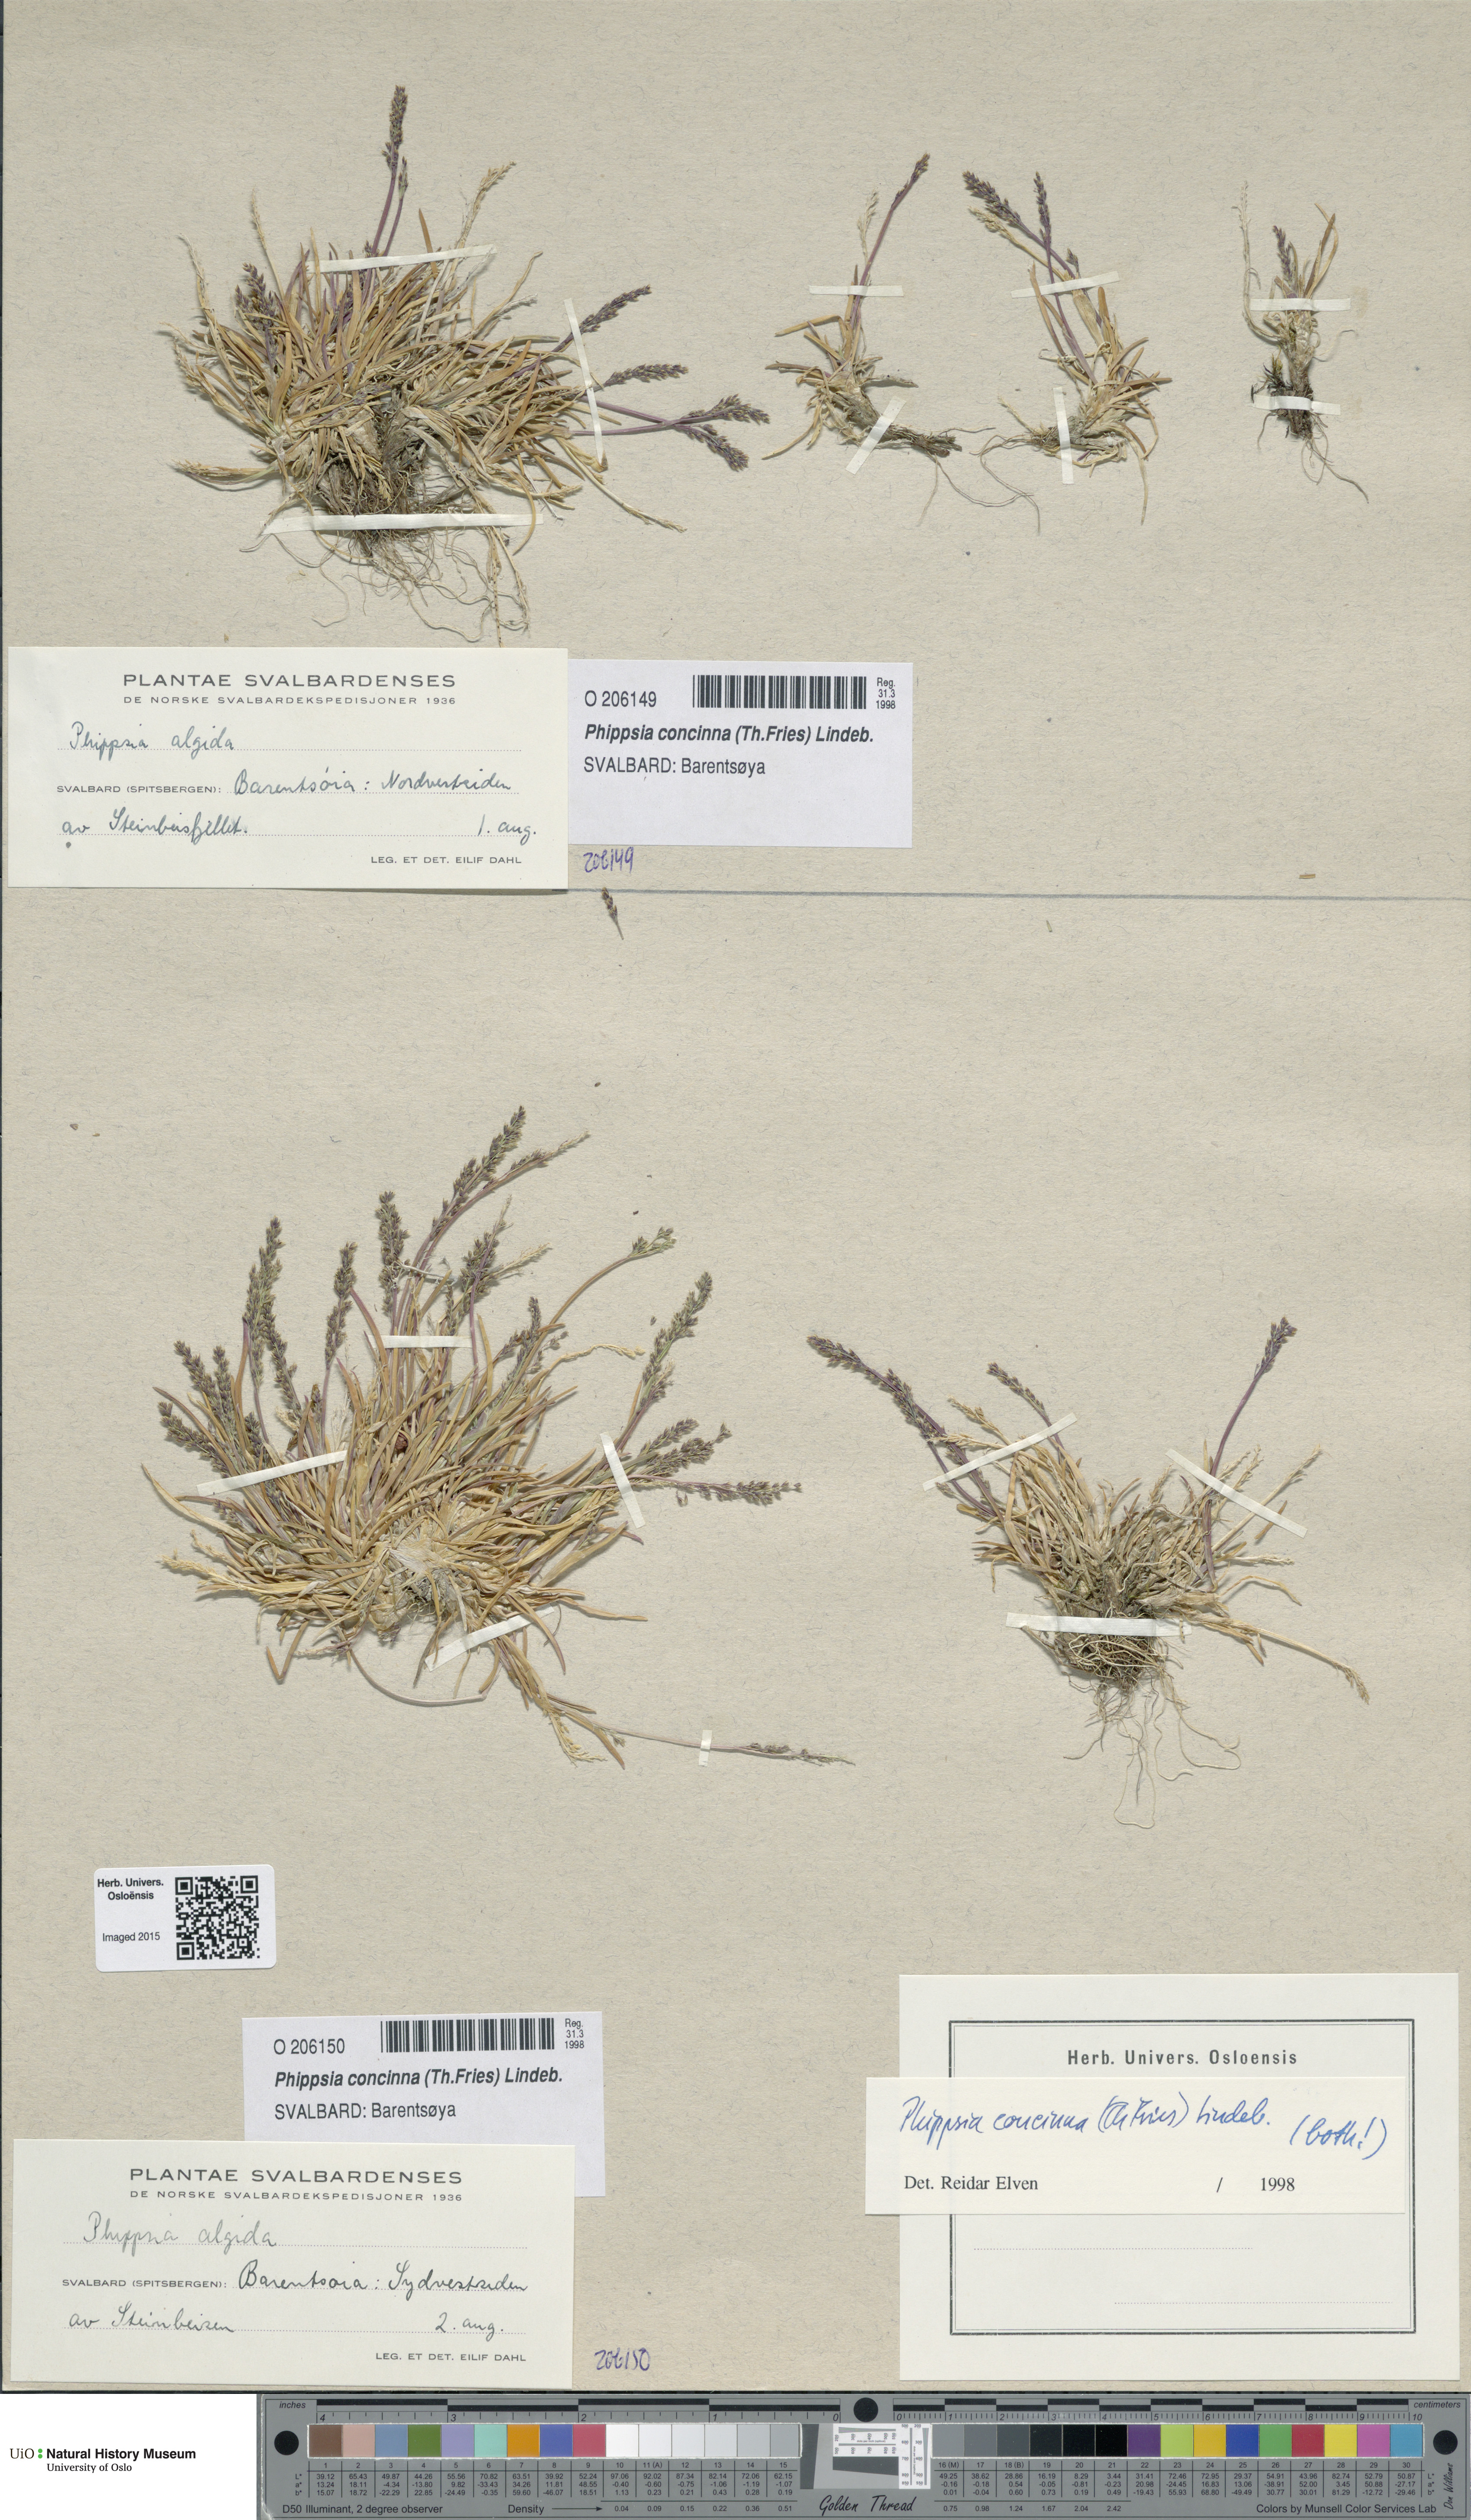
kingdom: Plantae
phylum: Tracheophyta
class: Liliopsida
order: Poales
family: Poaceae
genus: Phippsia
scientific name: Phippsia concinna
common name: Snowgrass
